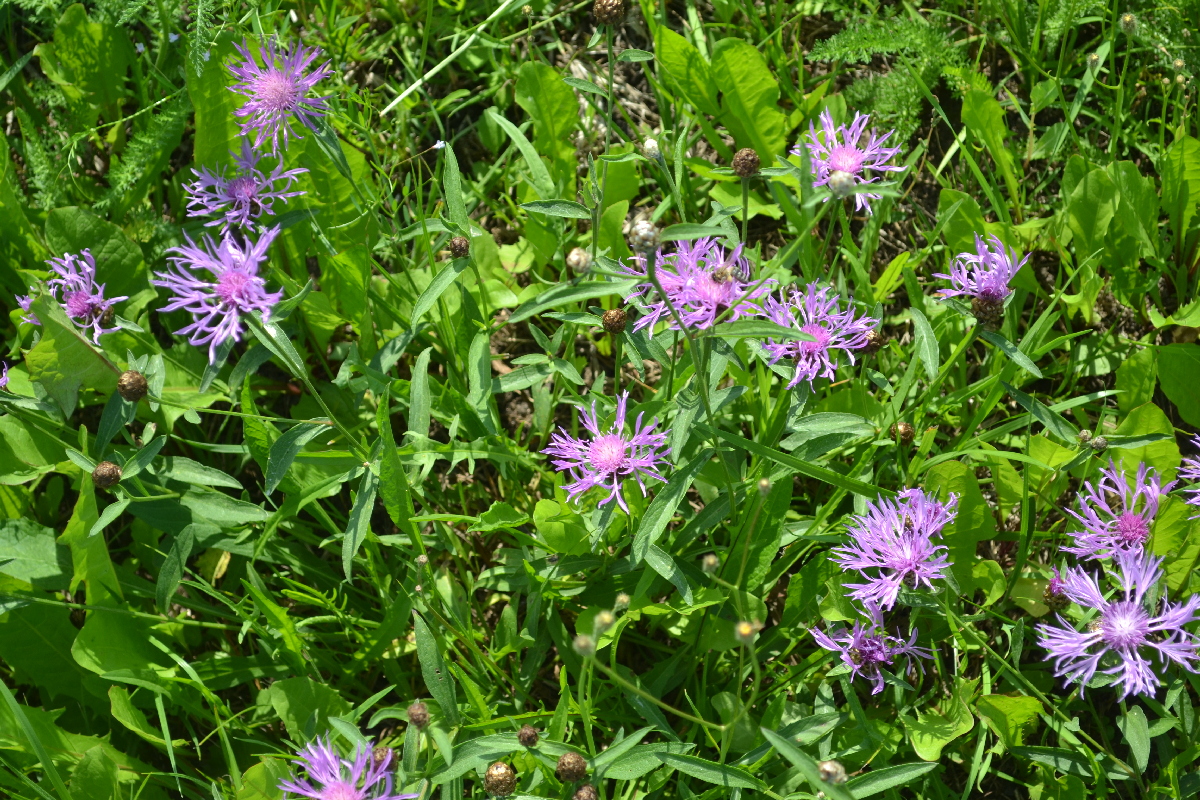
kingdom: Plantae
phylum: Tracheophyta
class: Magnoliopsida
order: Asterales
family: Asteraceae
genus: Centaurea
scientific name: Centaurea jacea
